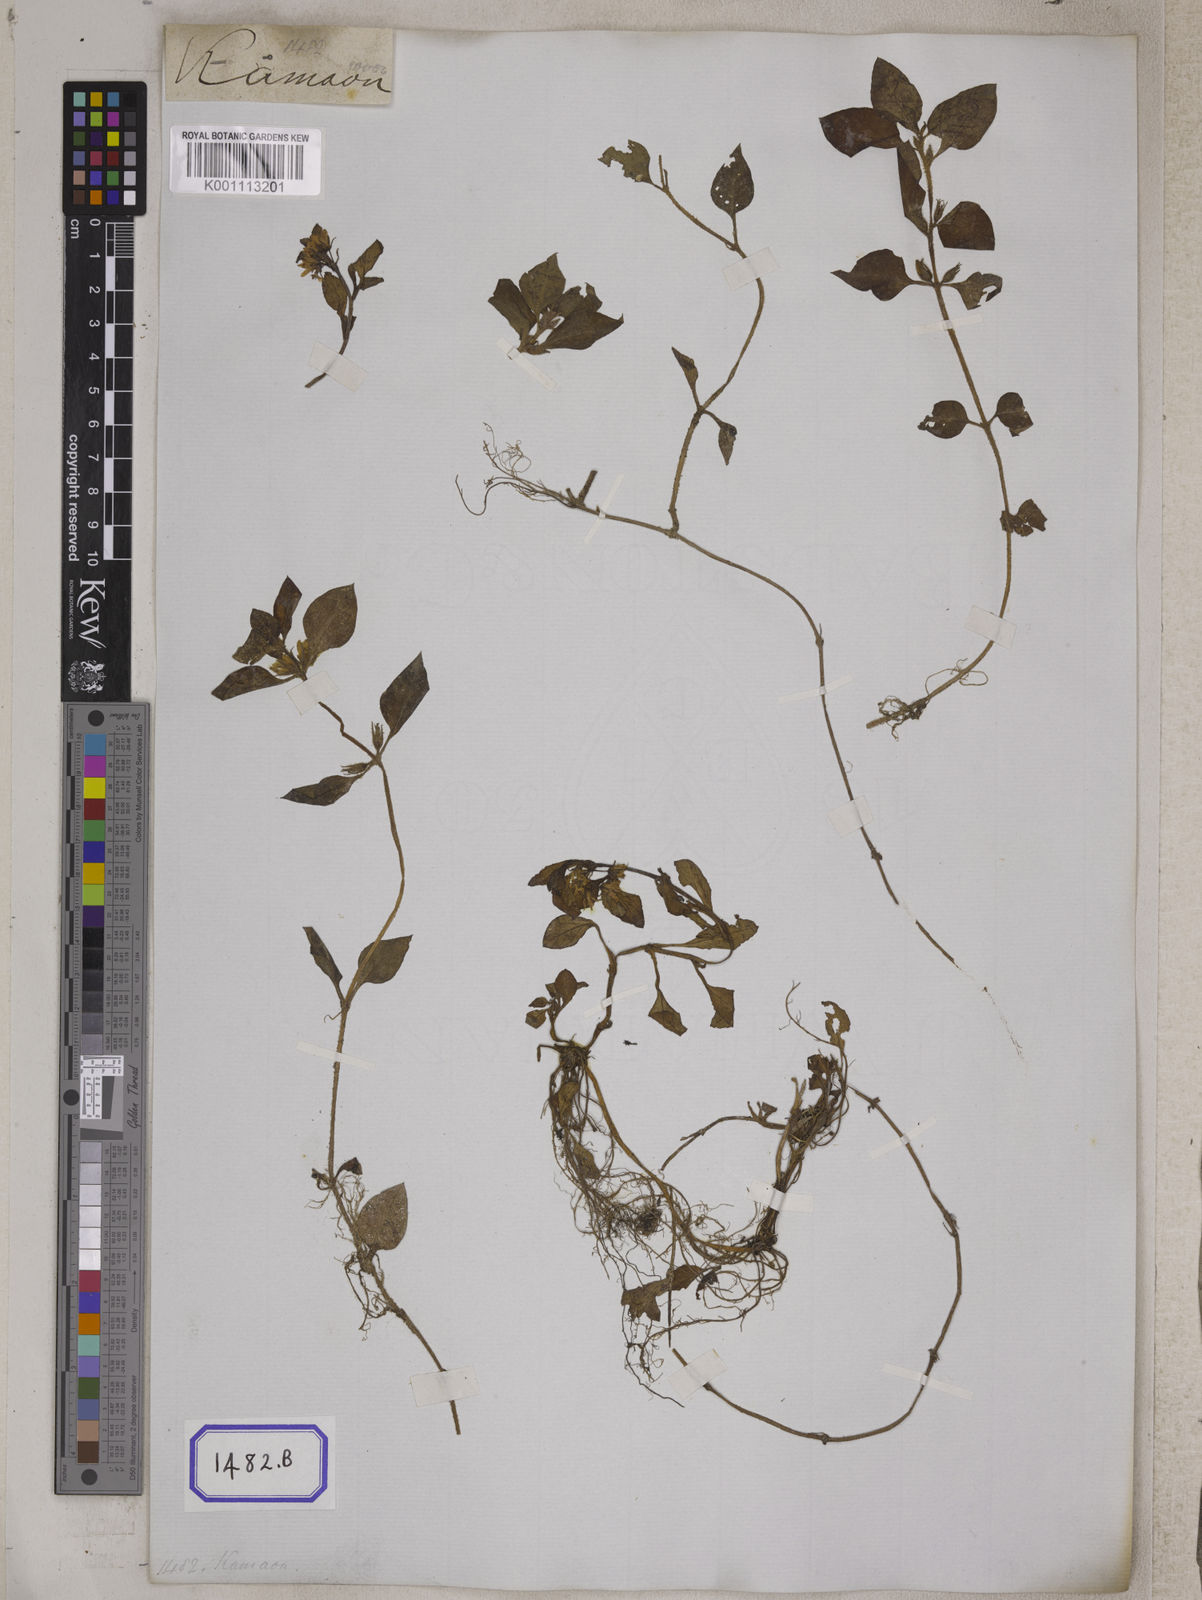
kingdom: Plantae
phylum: Tracheophyta
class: Magnoliopsida
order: Ericales
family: Primulaceae
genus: Lysimachia
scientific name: Lysimachia japonica
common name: Japanese yellow loosestrife
